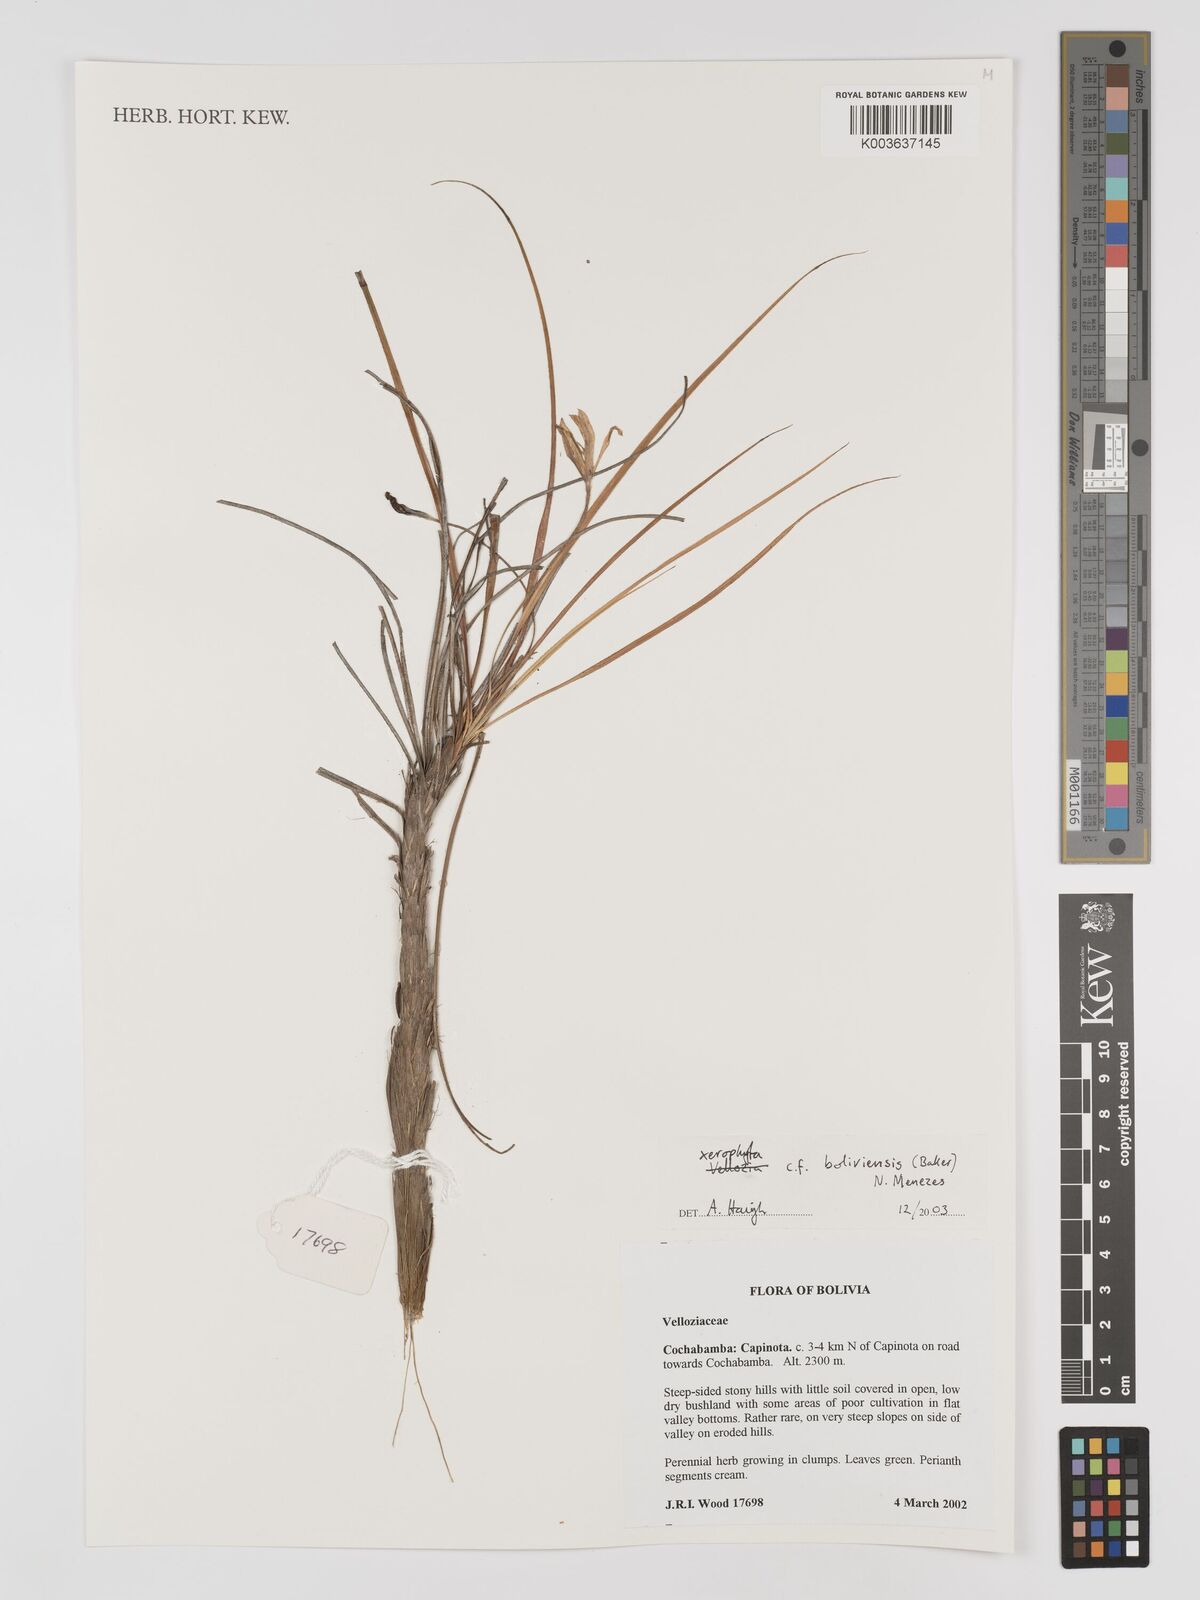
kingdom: Plantae
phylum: Tracheophyta
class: Liliopsida
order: Pandanales
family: Velloziaceae
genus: Barbaceniopsis
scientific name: Barbaceniopsis boliviensis
